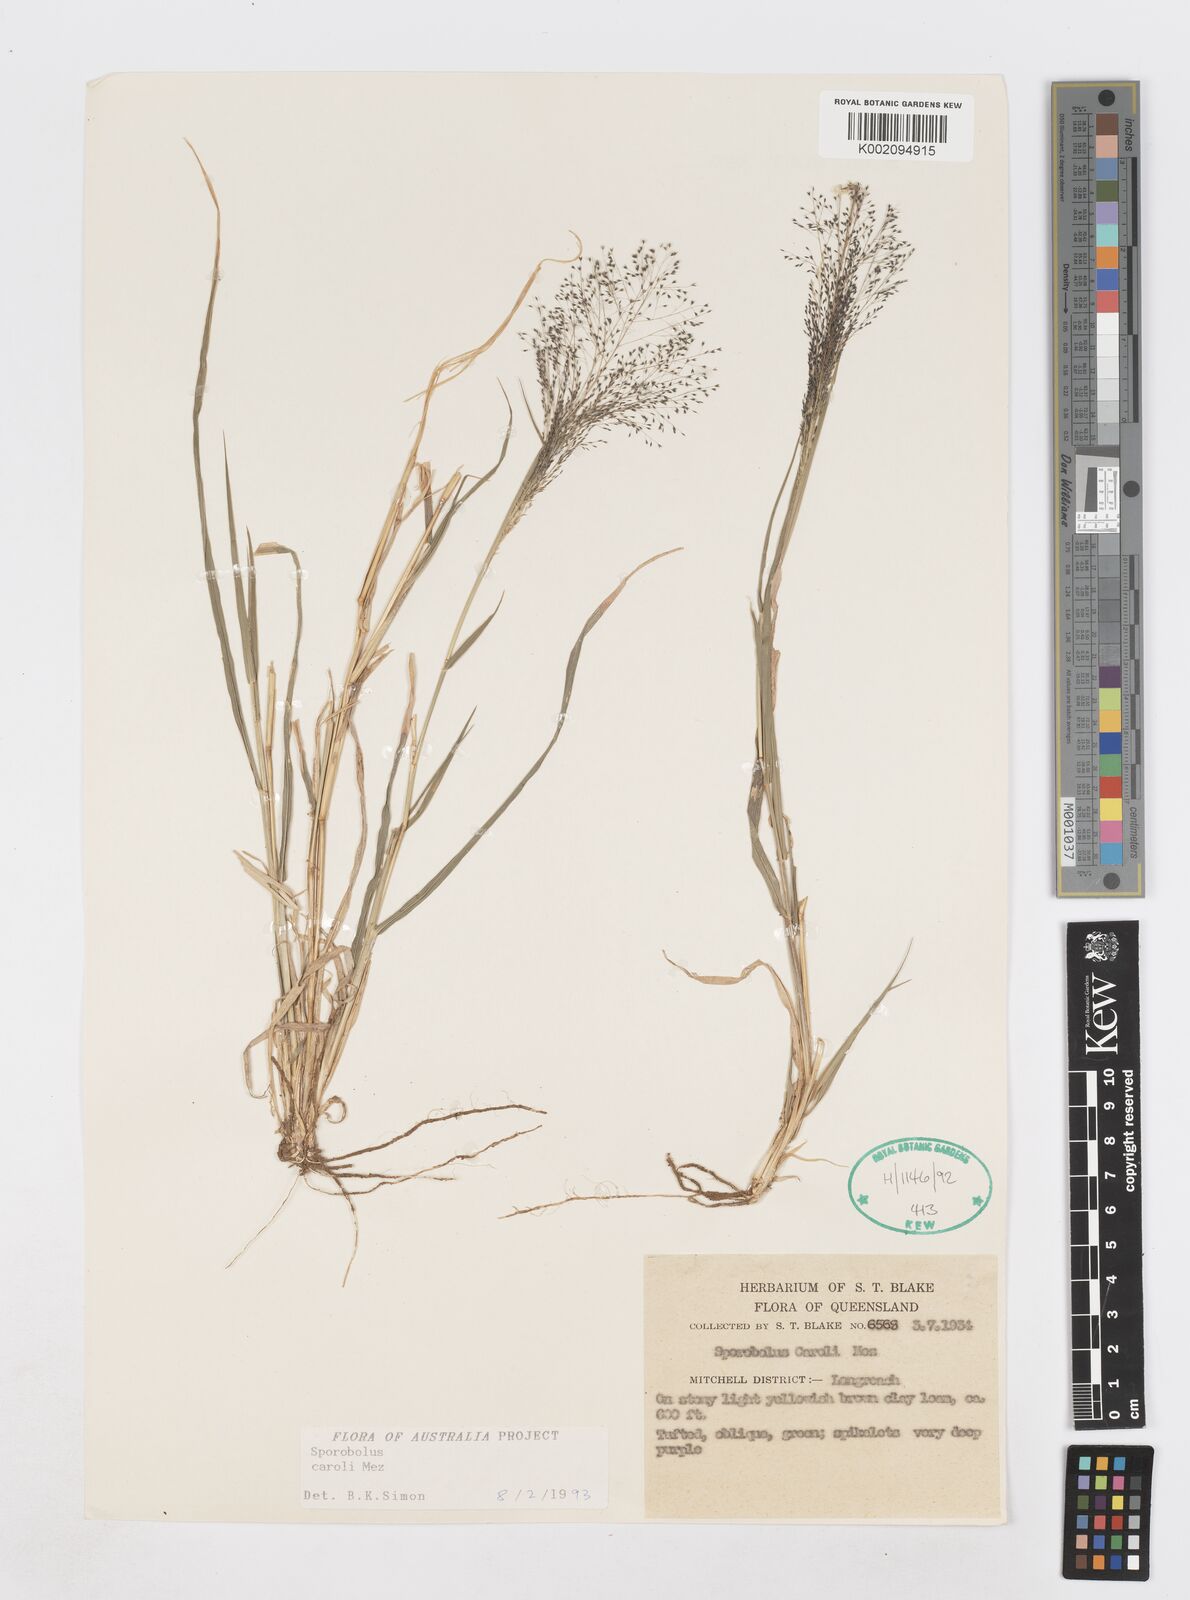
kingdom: Plantae
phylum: Tracheophyta
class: Liliopsida
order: Poales
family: Poaceae
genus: Sporobolus
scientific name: Sporobolus caroli
